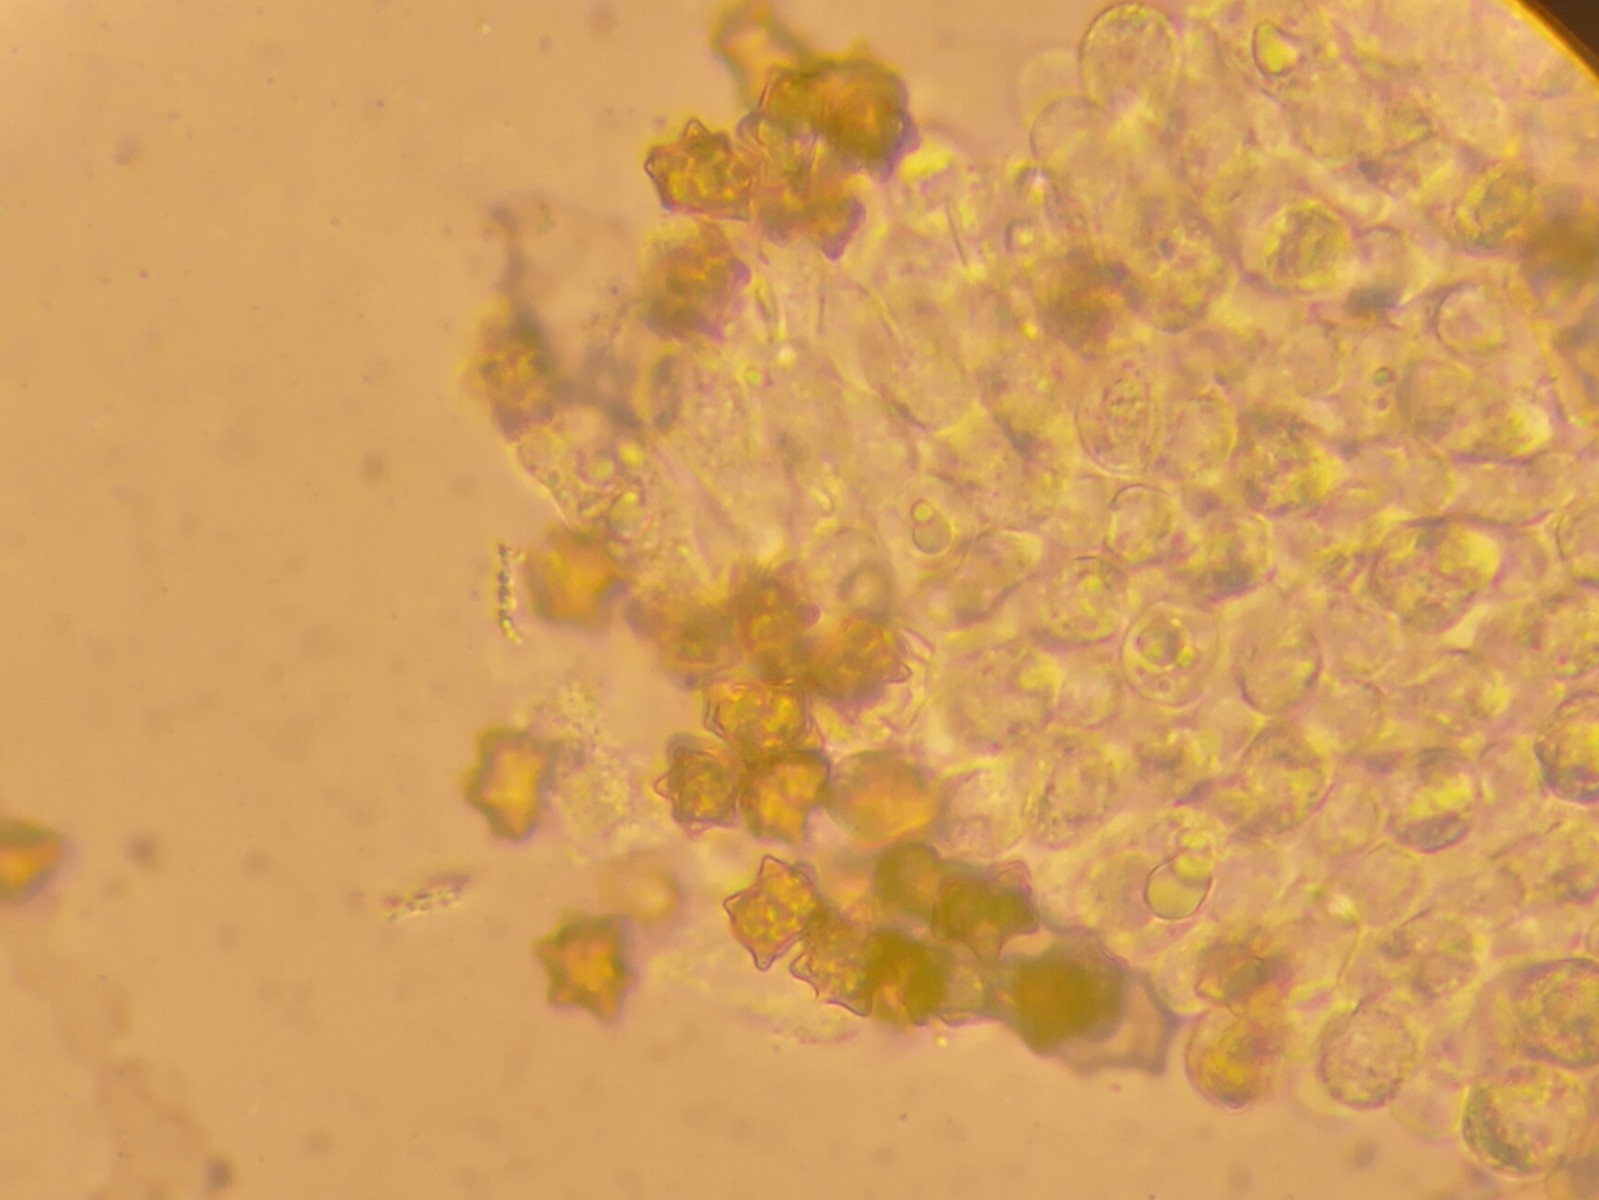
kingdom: Fungi
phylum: Basidiomycota
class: Agaricomycetes
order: Agaricales
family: Inocybaceae
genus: Inocybe
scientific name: Inocybe asterospora
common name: stjernesporet trævlhat
